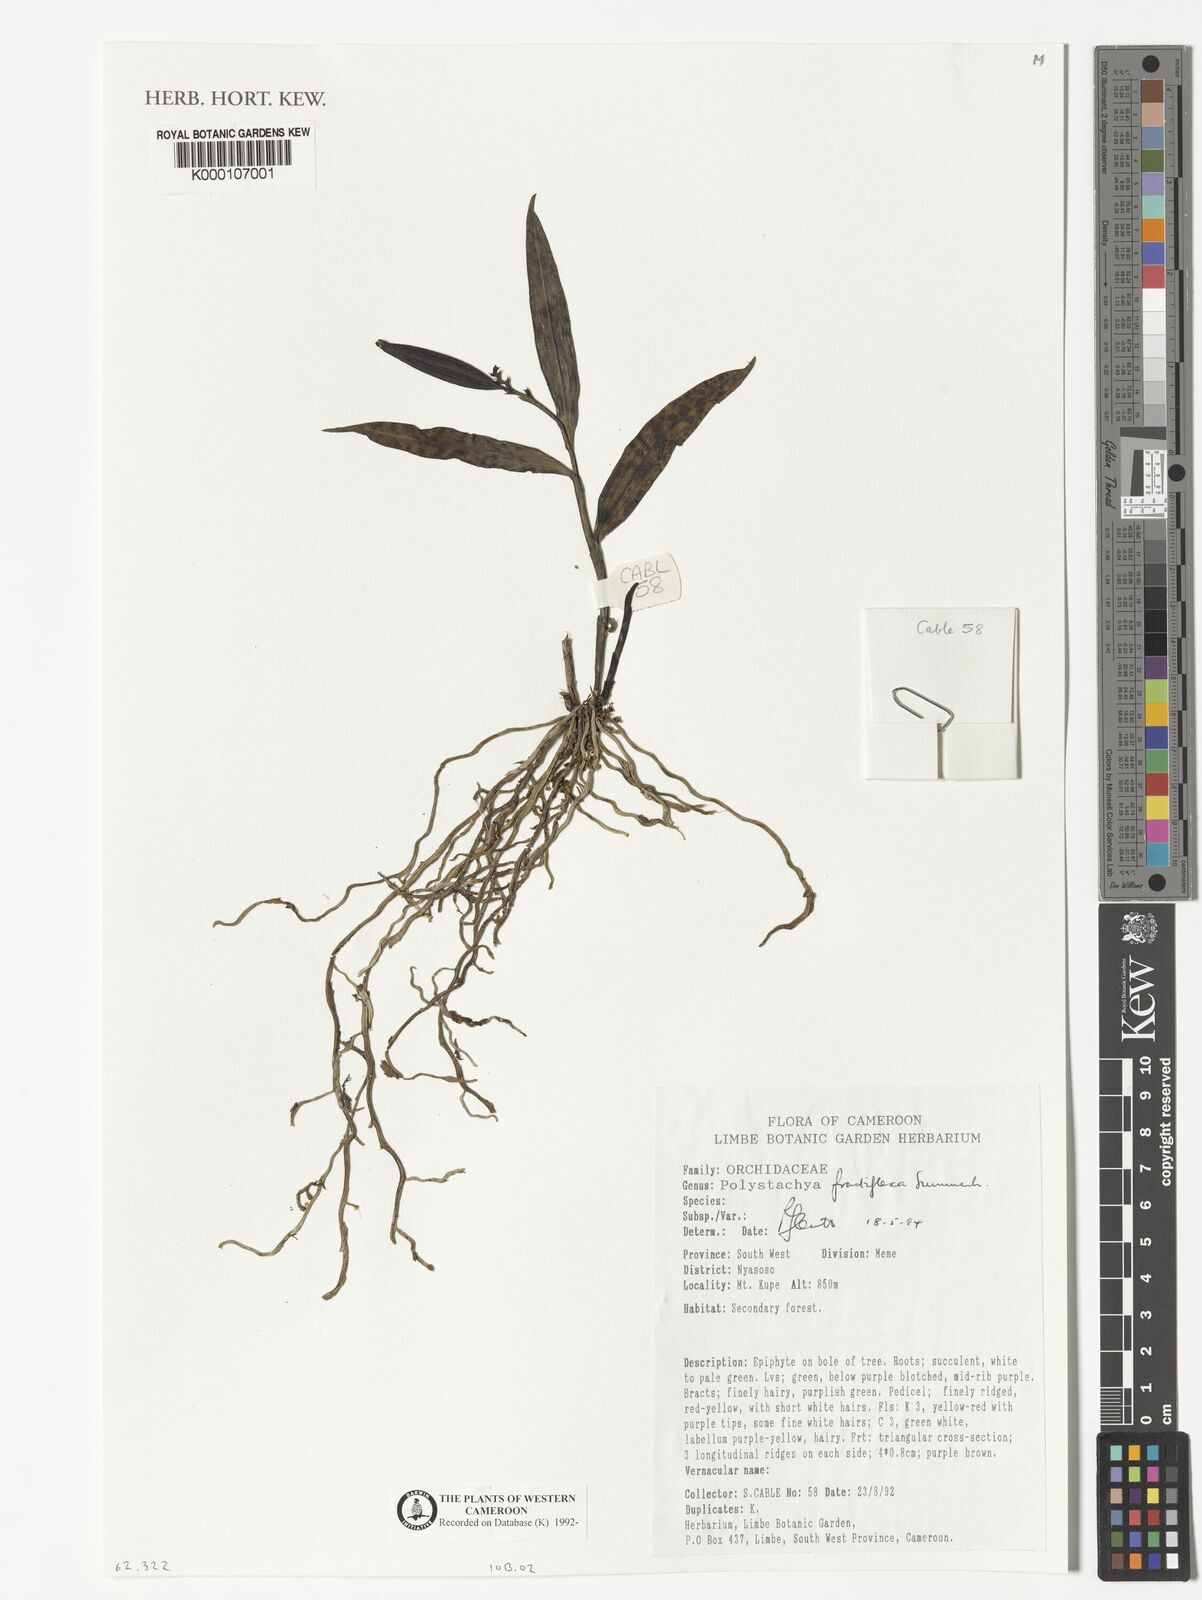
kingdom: Plantae
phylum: Tracheophyta
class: Liliopsida
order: Asparagales
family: Orchidaceae
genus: Polystachya
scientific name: Polystachya fractiflexa
